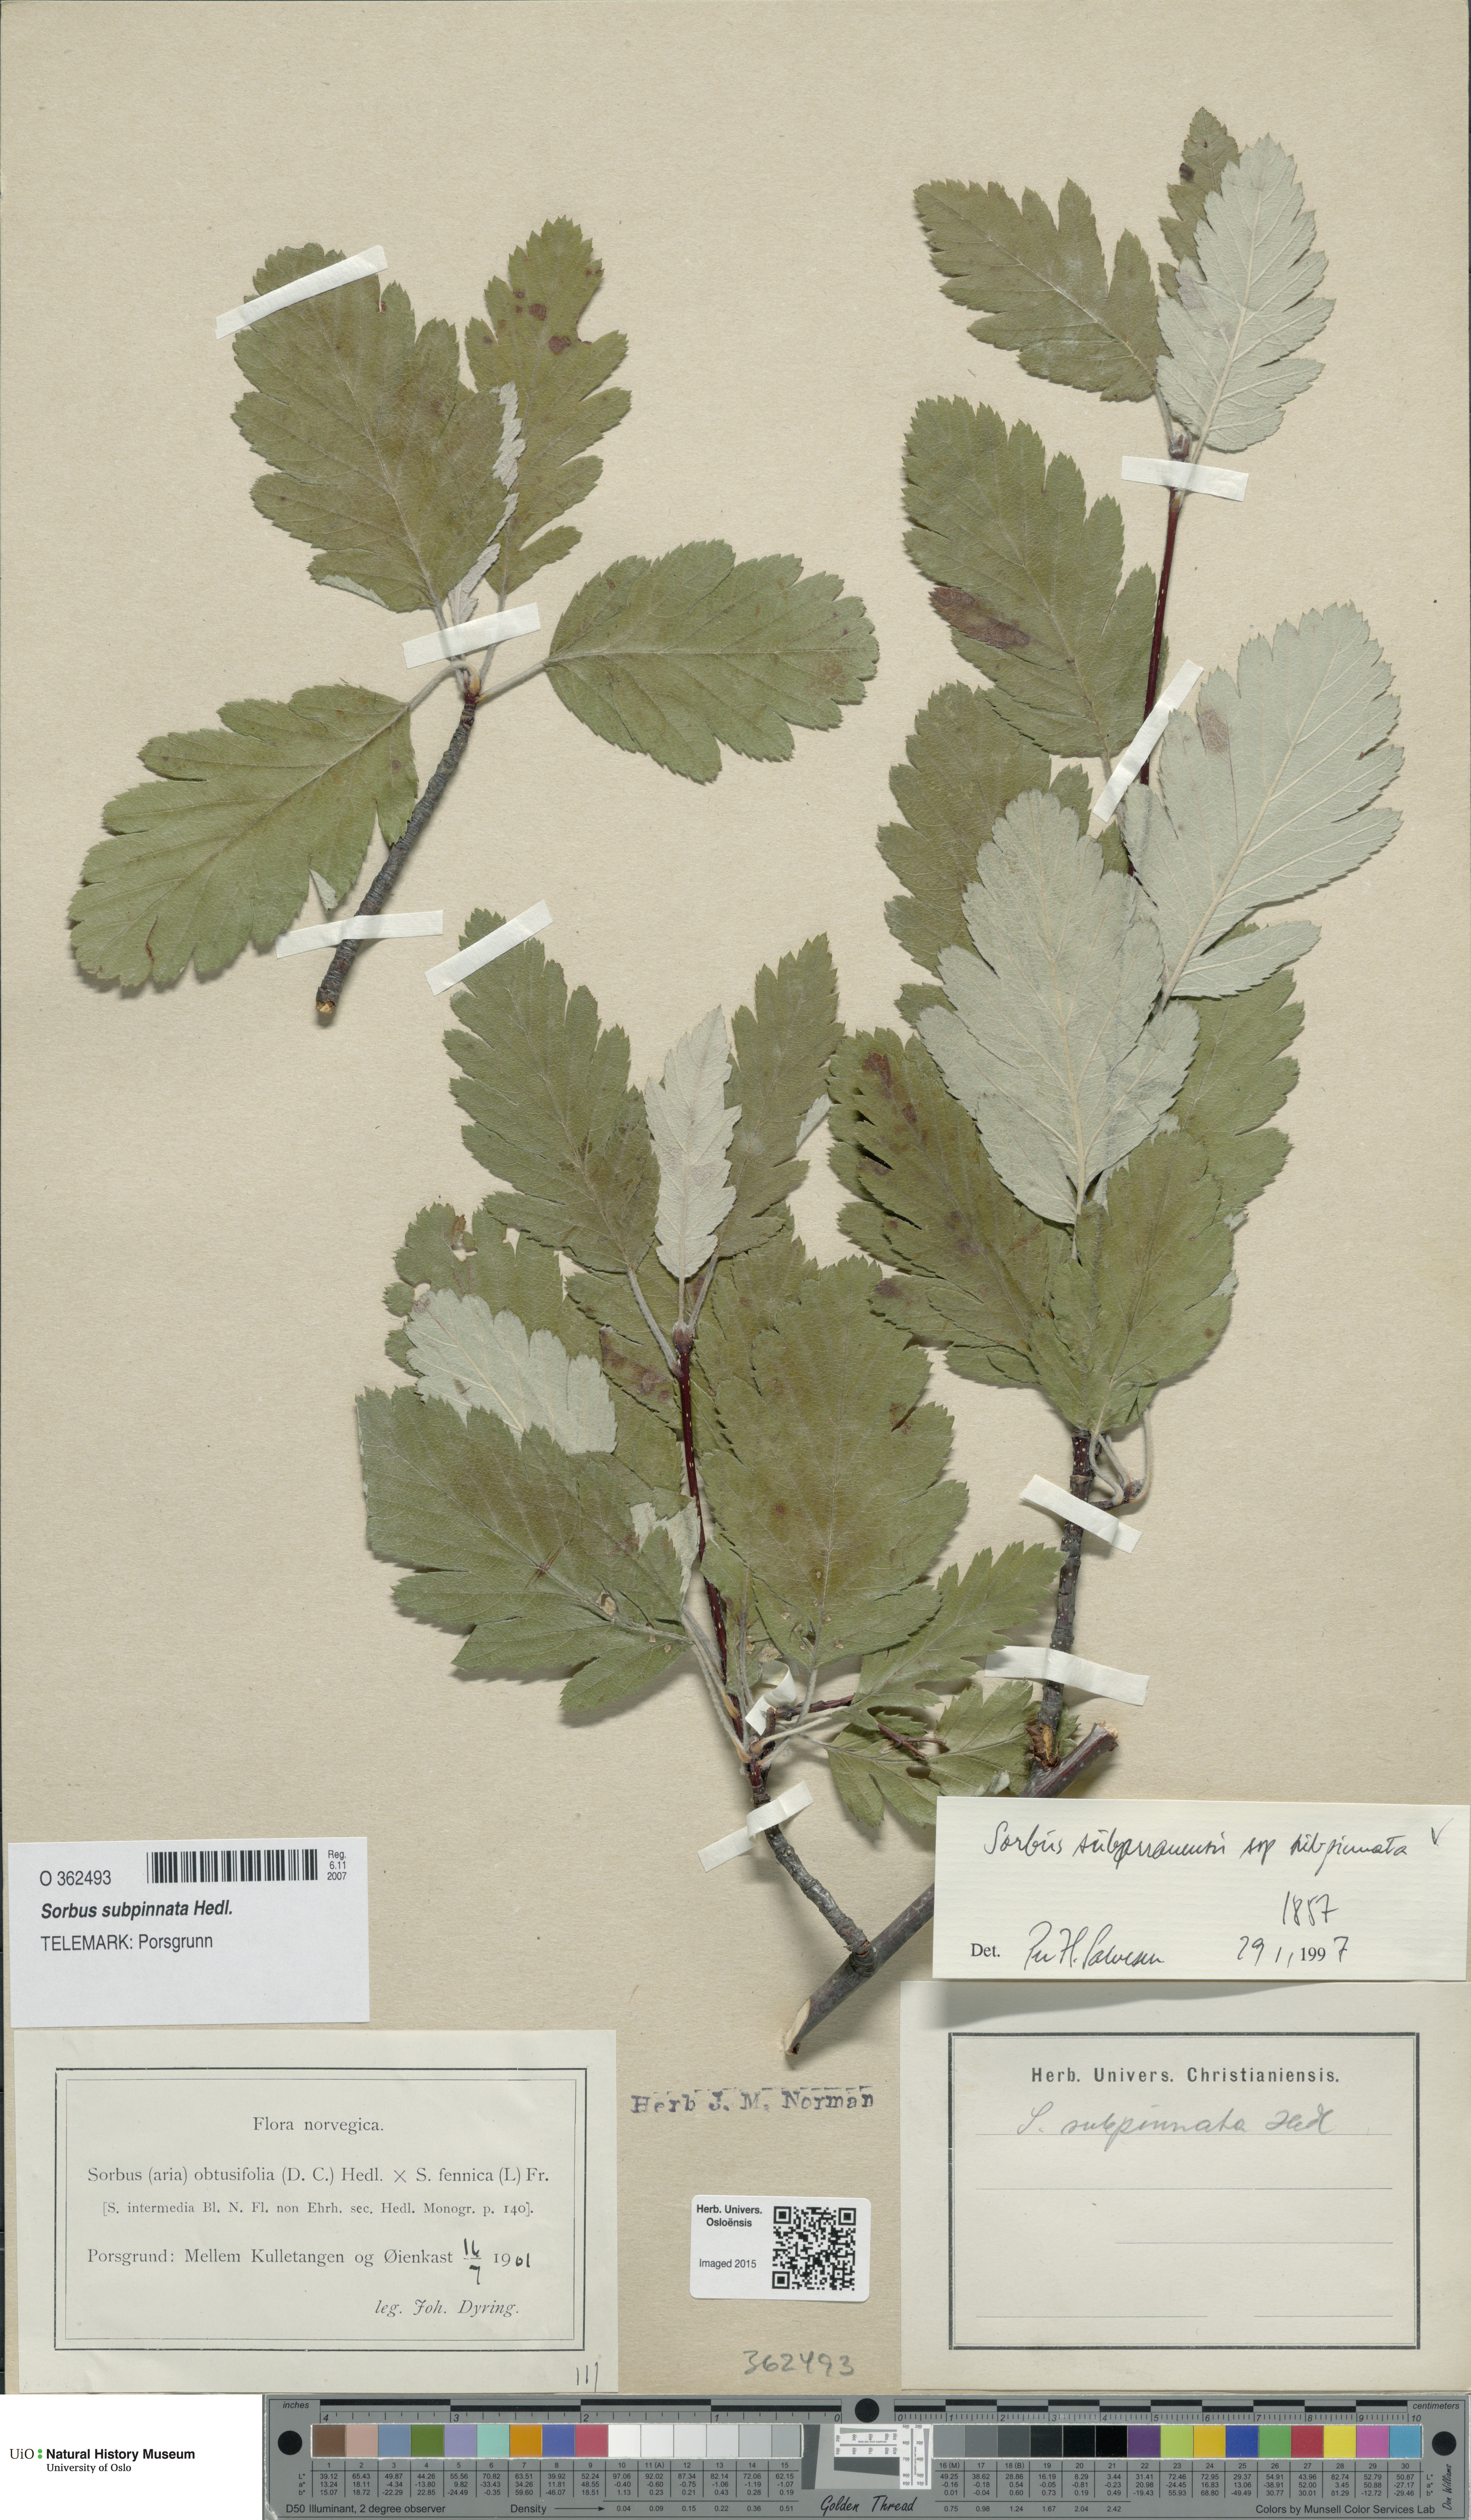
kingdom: Plantae
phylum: Tracheophyta
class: Magnoliopsida
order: Rosales
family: Rosaceae
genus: Hedlundia
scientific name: Hedlundia subpinnata
